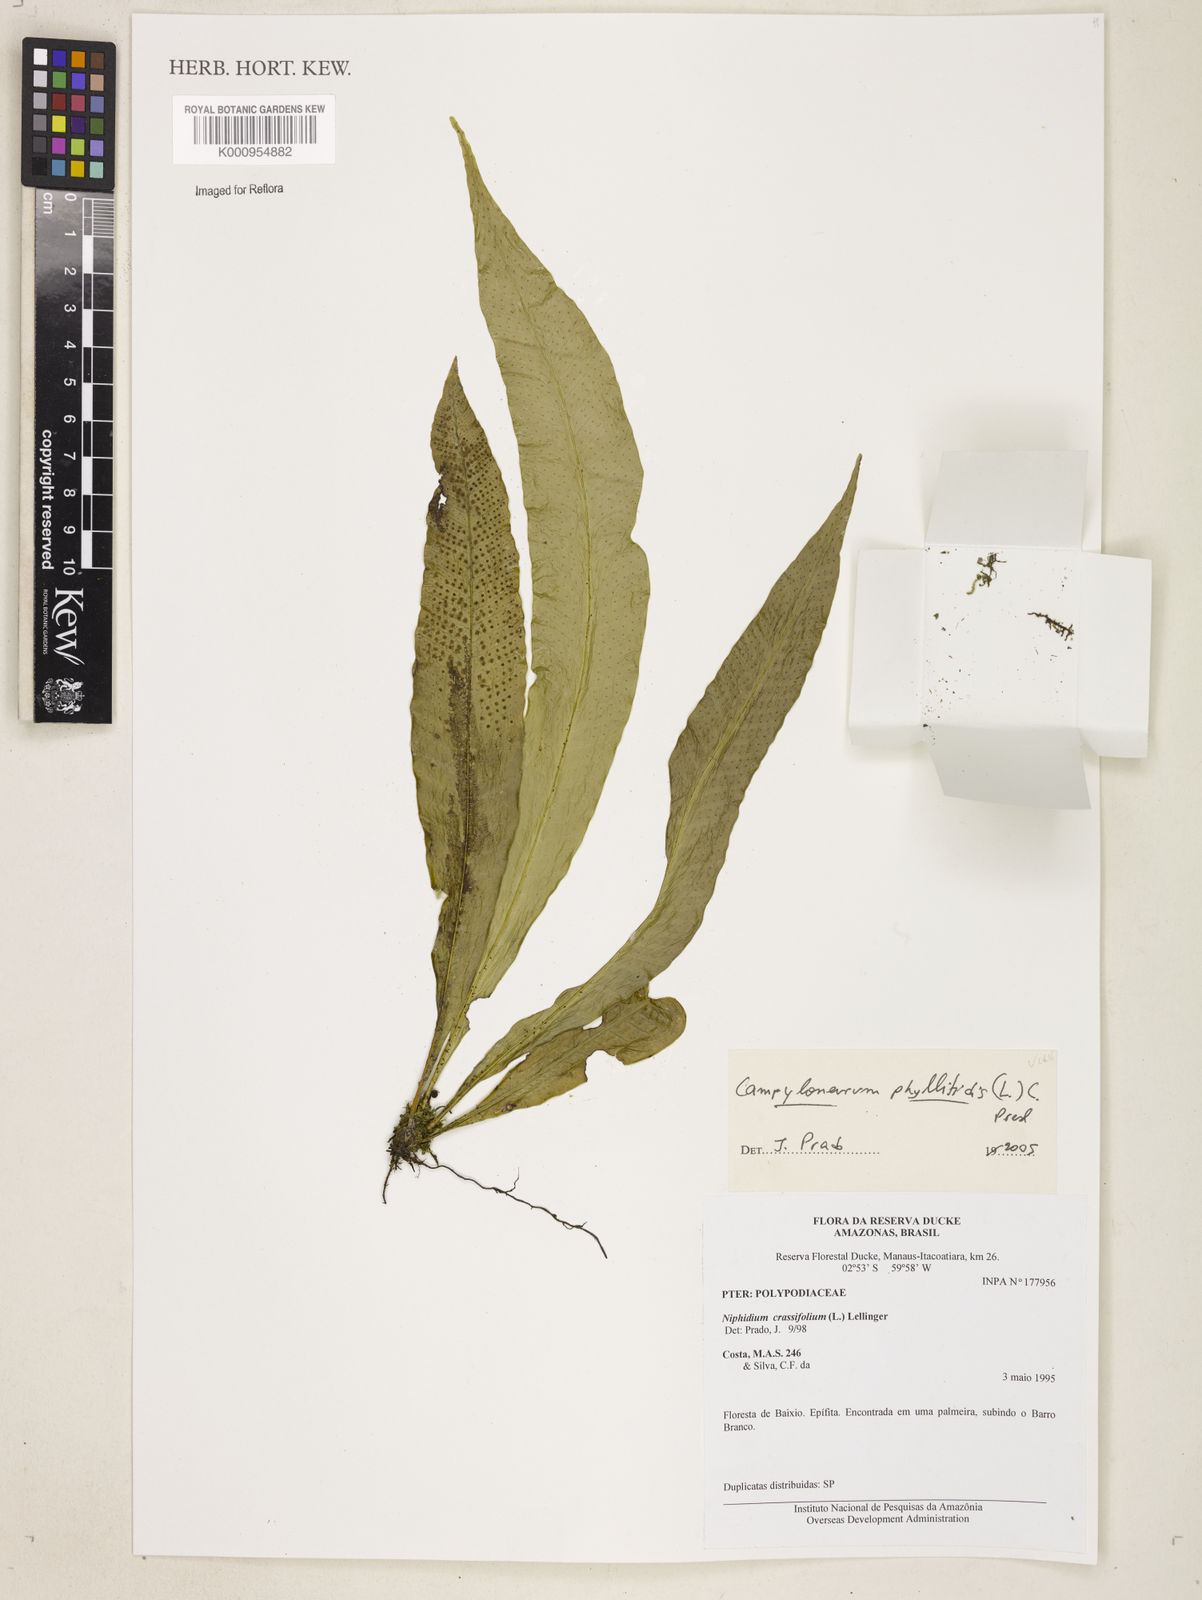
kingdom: Plantae
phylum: Tracheophyta
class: Polypodiopsida
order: Polypodiales
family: Polypodiaceae
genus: Campyloneurum
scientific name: Campyloneurum phyllitidis
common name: Cow-tongue fern
